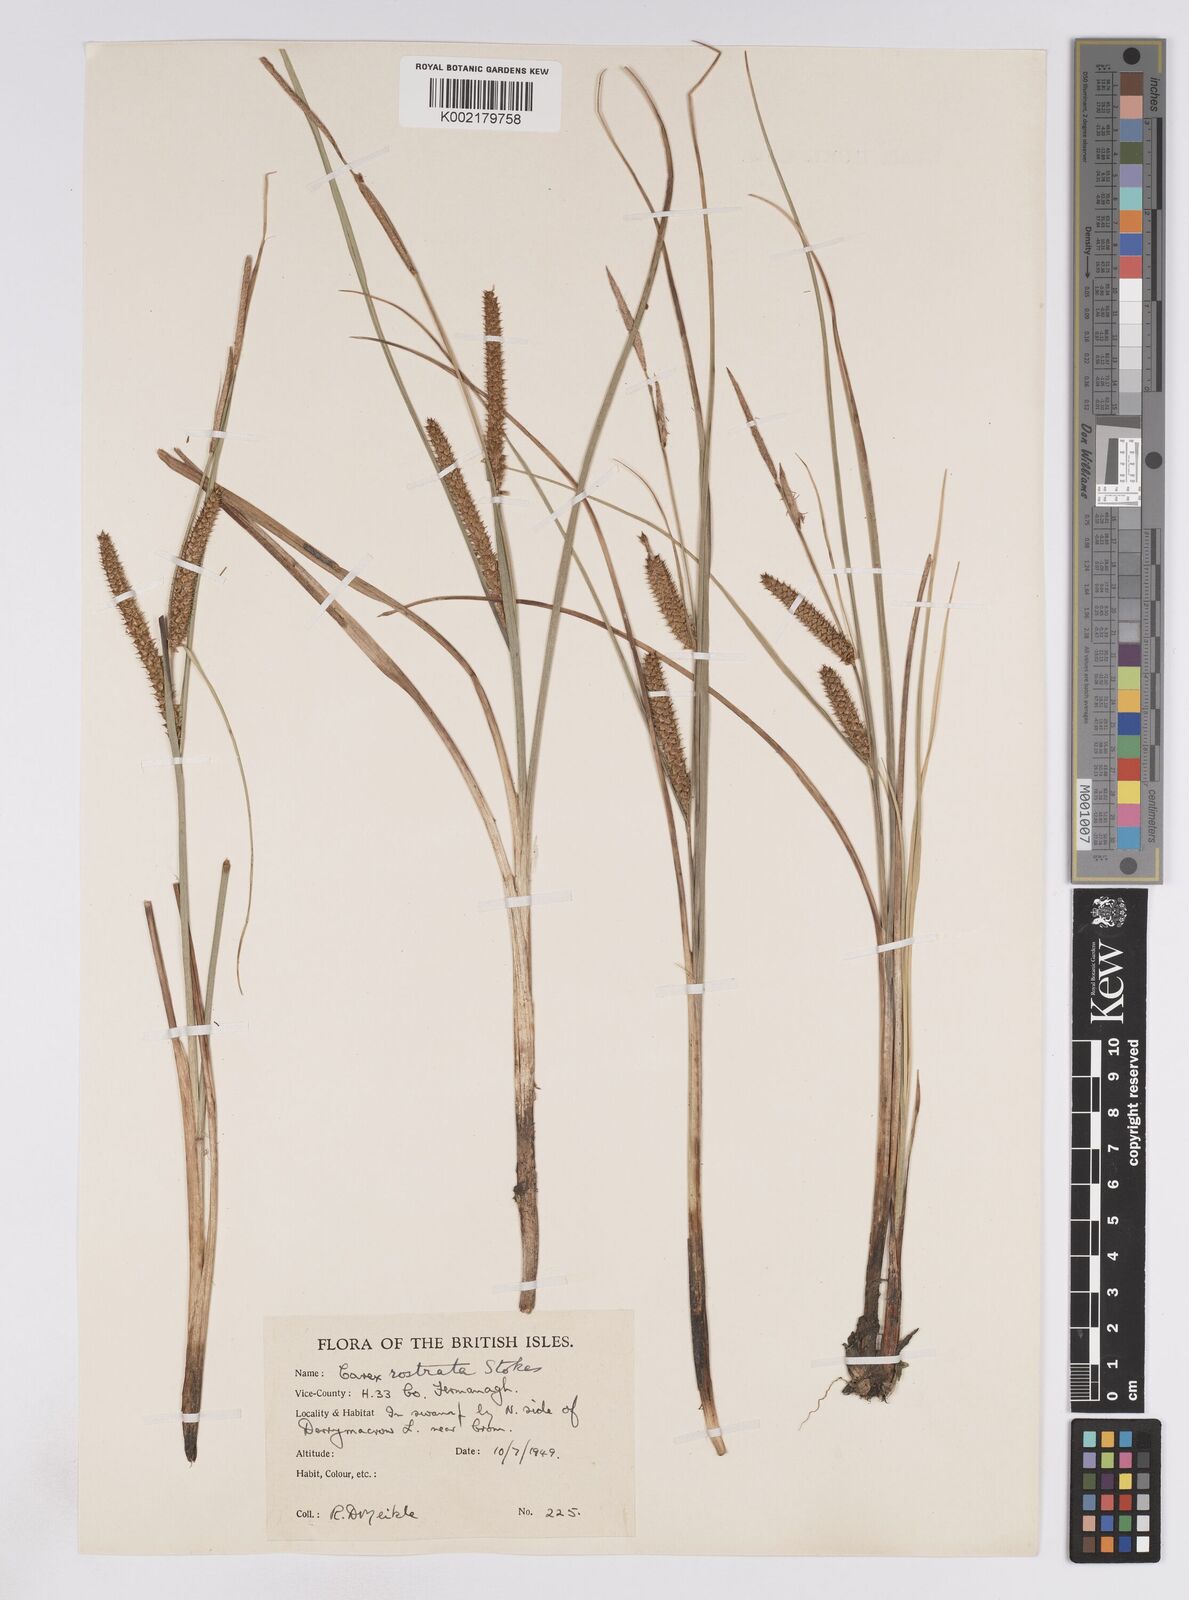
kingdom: Plantae
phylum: Tracheophyta
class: Liliopsida
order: Poales
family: Cyperaceae
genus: Carex
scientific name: Carex rostrata
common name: Bottle sedge
